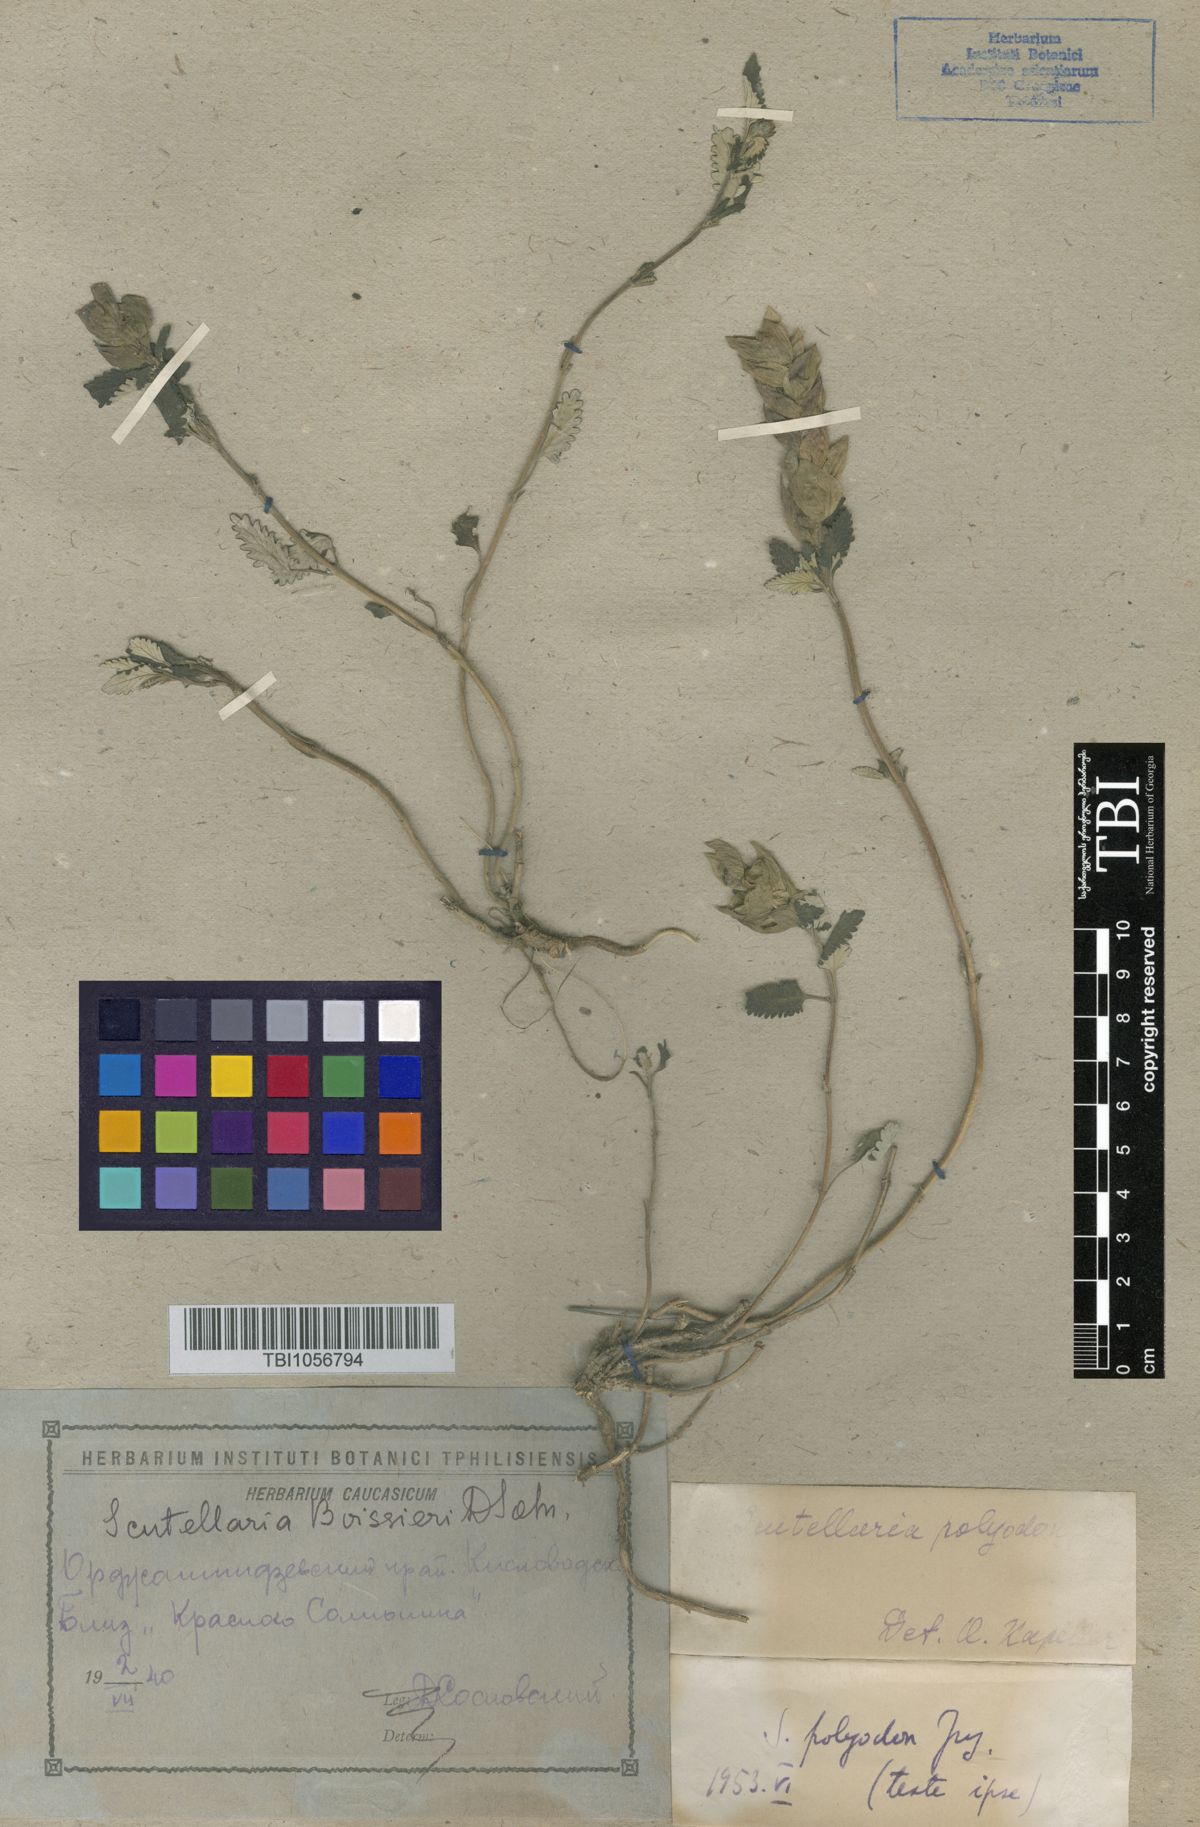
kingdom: Plantae
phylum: Tracheophyta
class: Magnoliopsida
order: Lamiales
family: Lamiaceae
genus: Scutellaria
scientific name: Scutellaria caucasica
